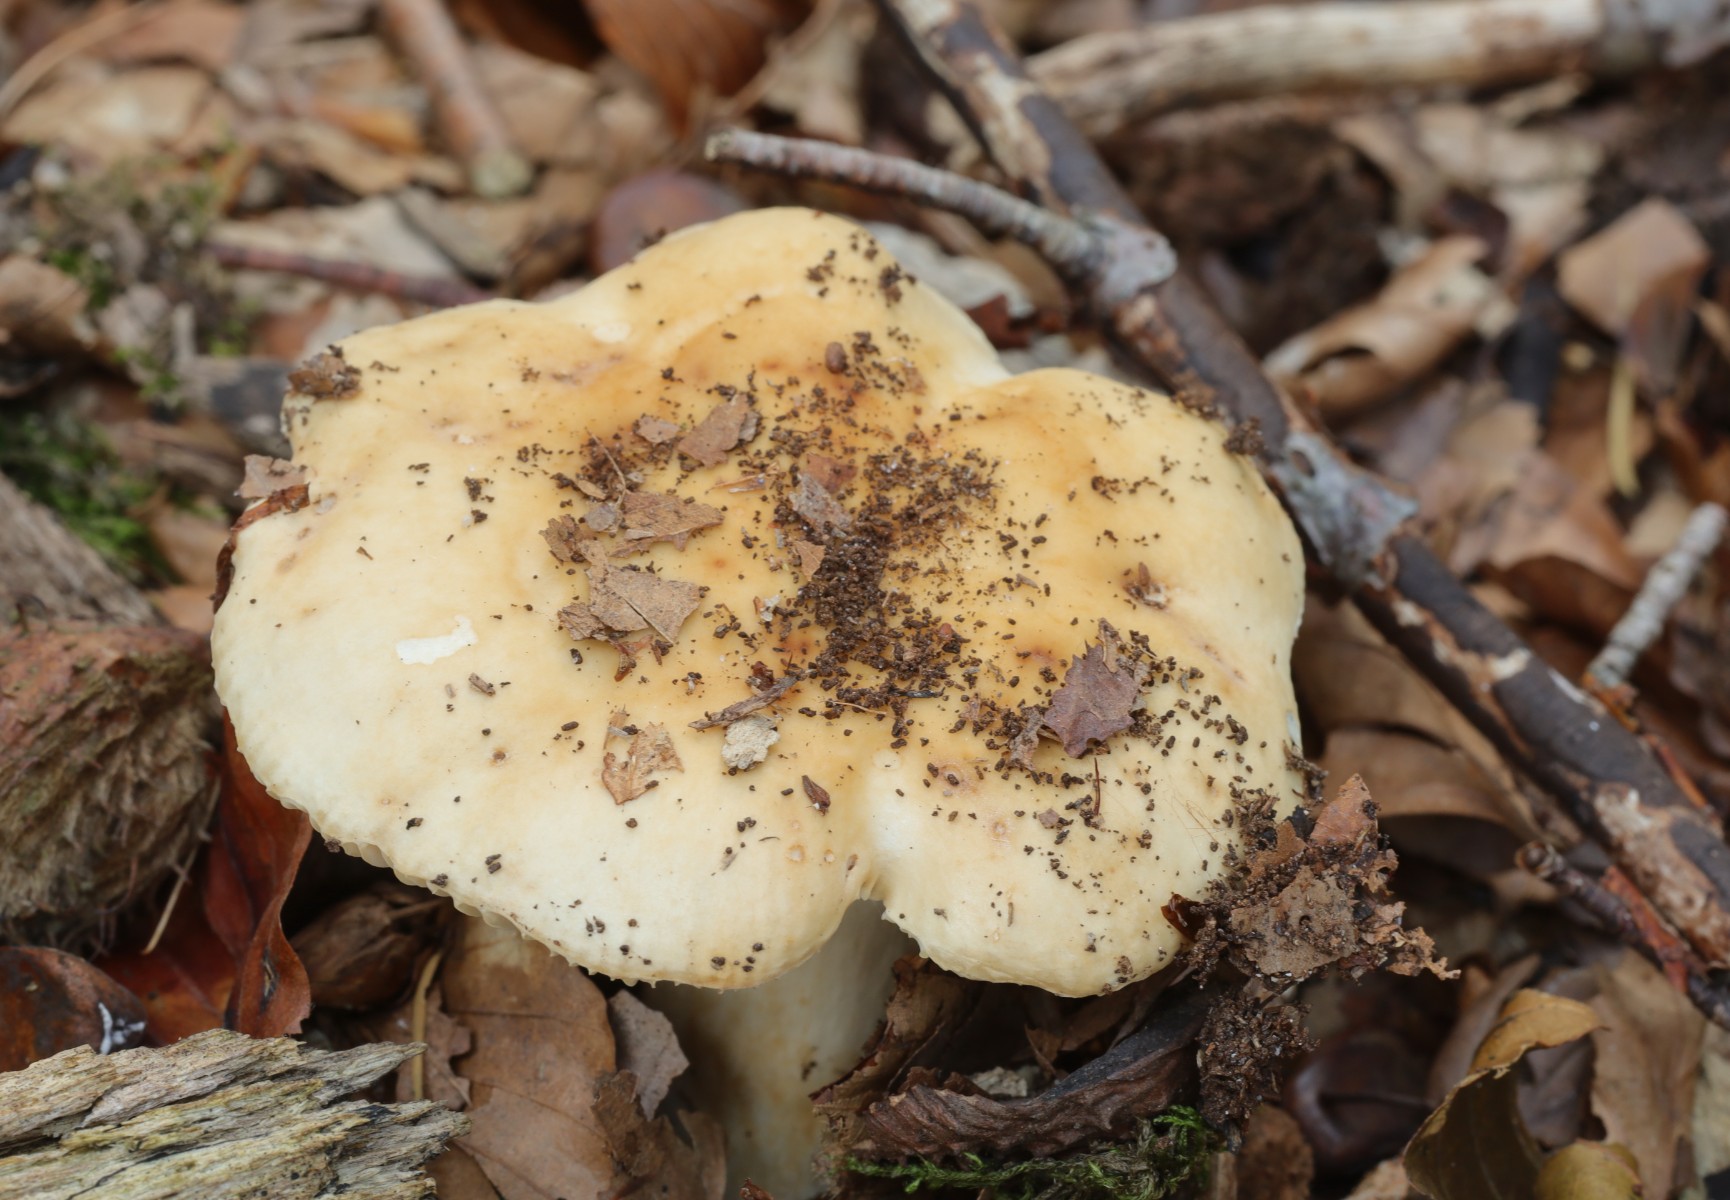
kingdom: Fungi
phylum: Basidiomycota
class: Agaricomycetes
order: Russulales
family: Russulaceae
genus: Russula
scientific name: Russula fellea
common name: galde-skørhat
